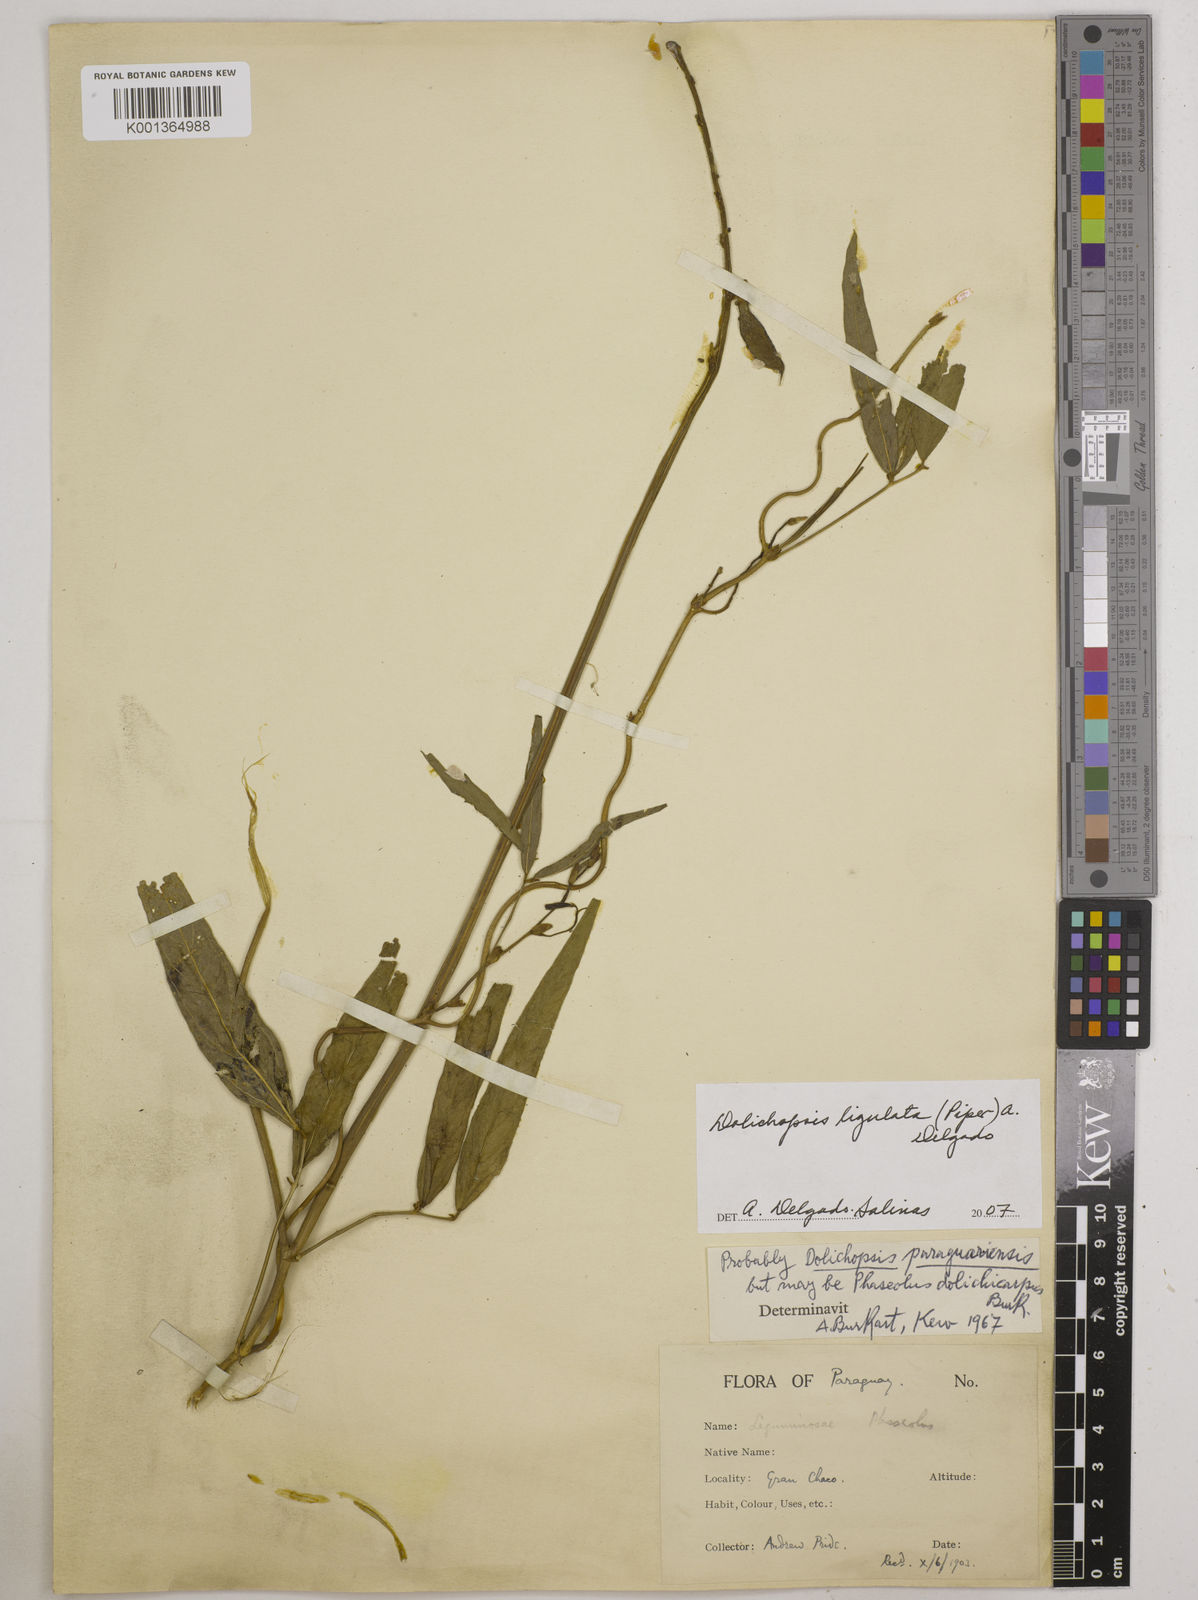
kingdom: Plantae
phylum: Tracheophyta
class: Magnoliopsida
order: Fabales
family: Fabaceae
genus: Dolichopsis
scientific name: Dolichopsis ligulata
